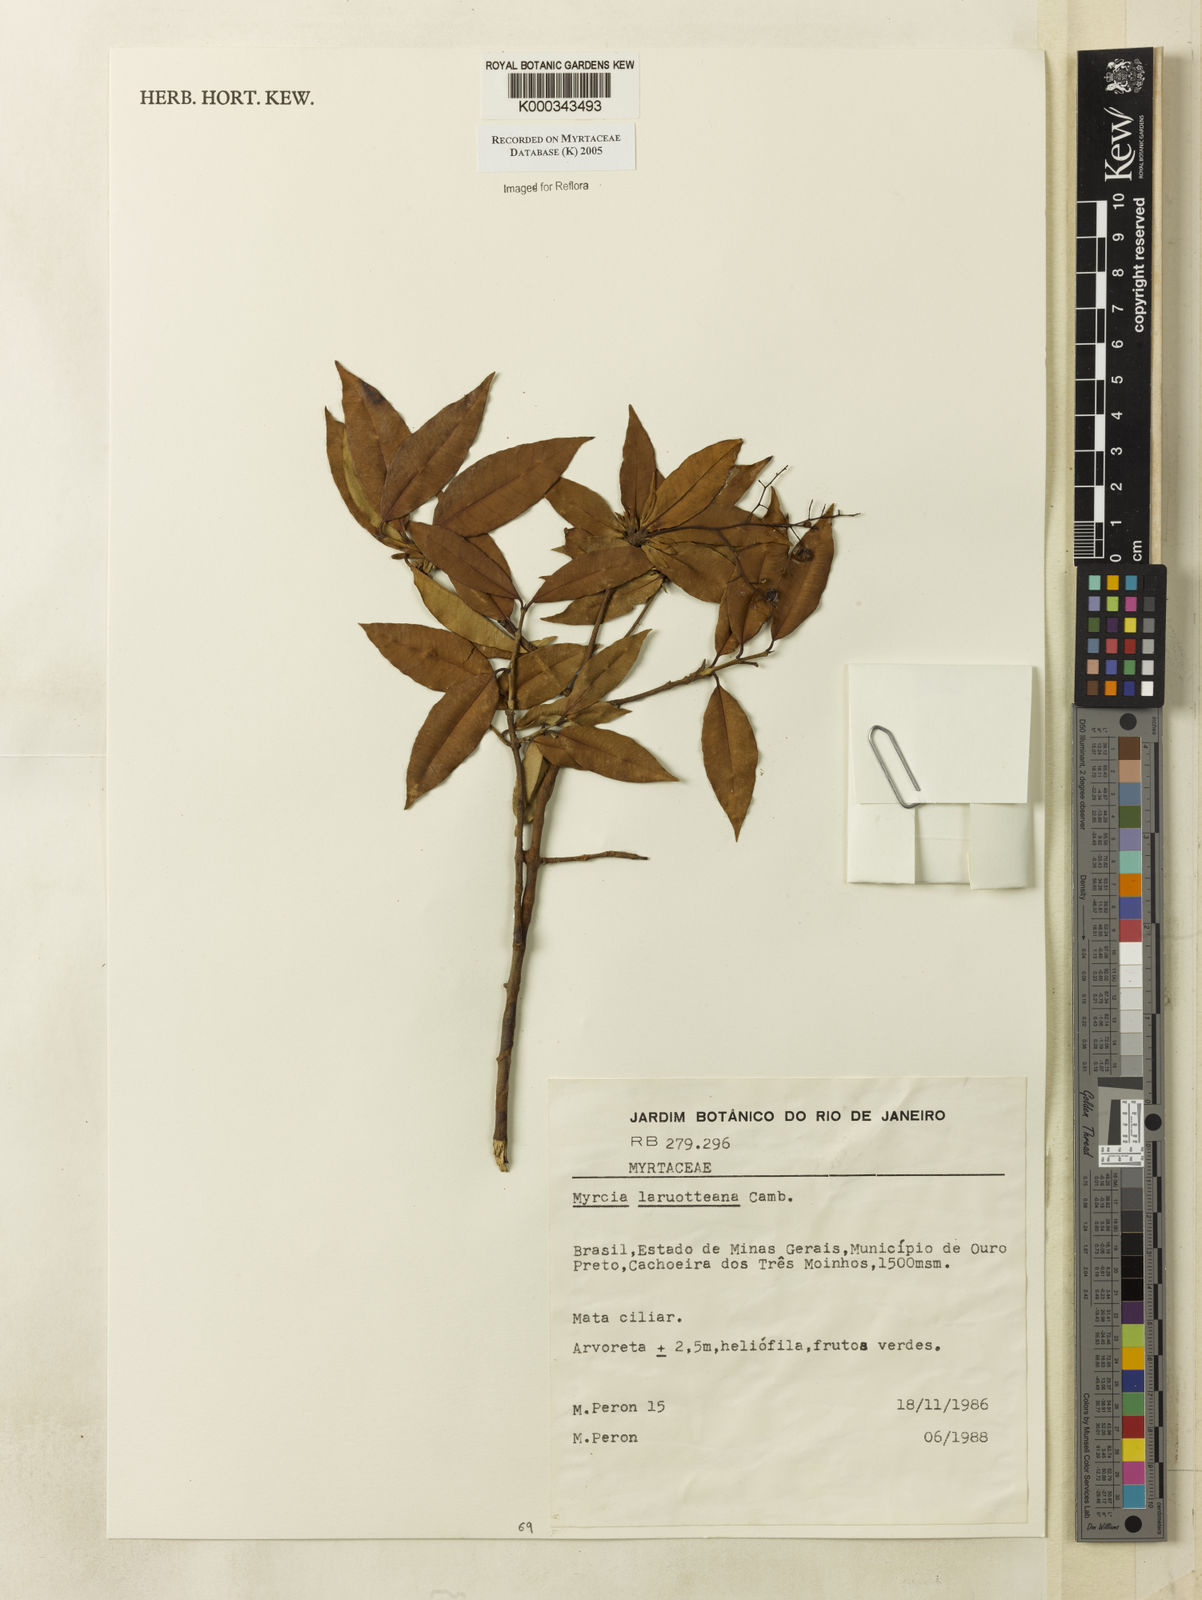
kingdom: Plantae
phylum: Tracheophyta
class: Magnoliopsida
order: Myrtales
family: Myrtaceae
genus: Myrcia
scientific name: Myrcia laruotteana
